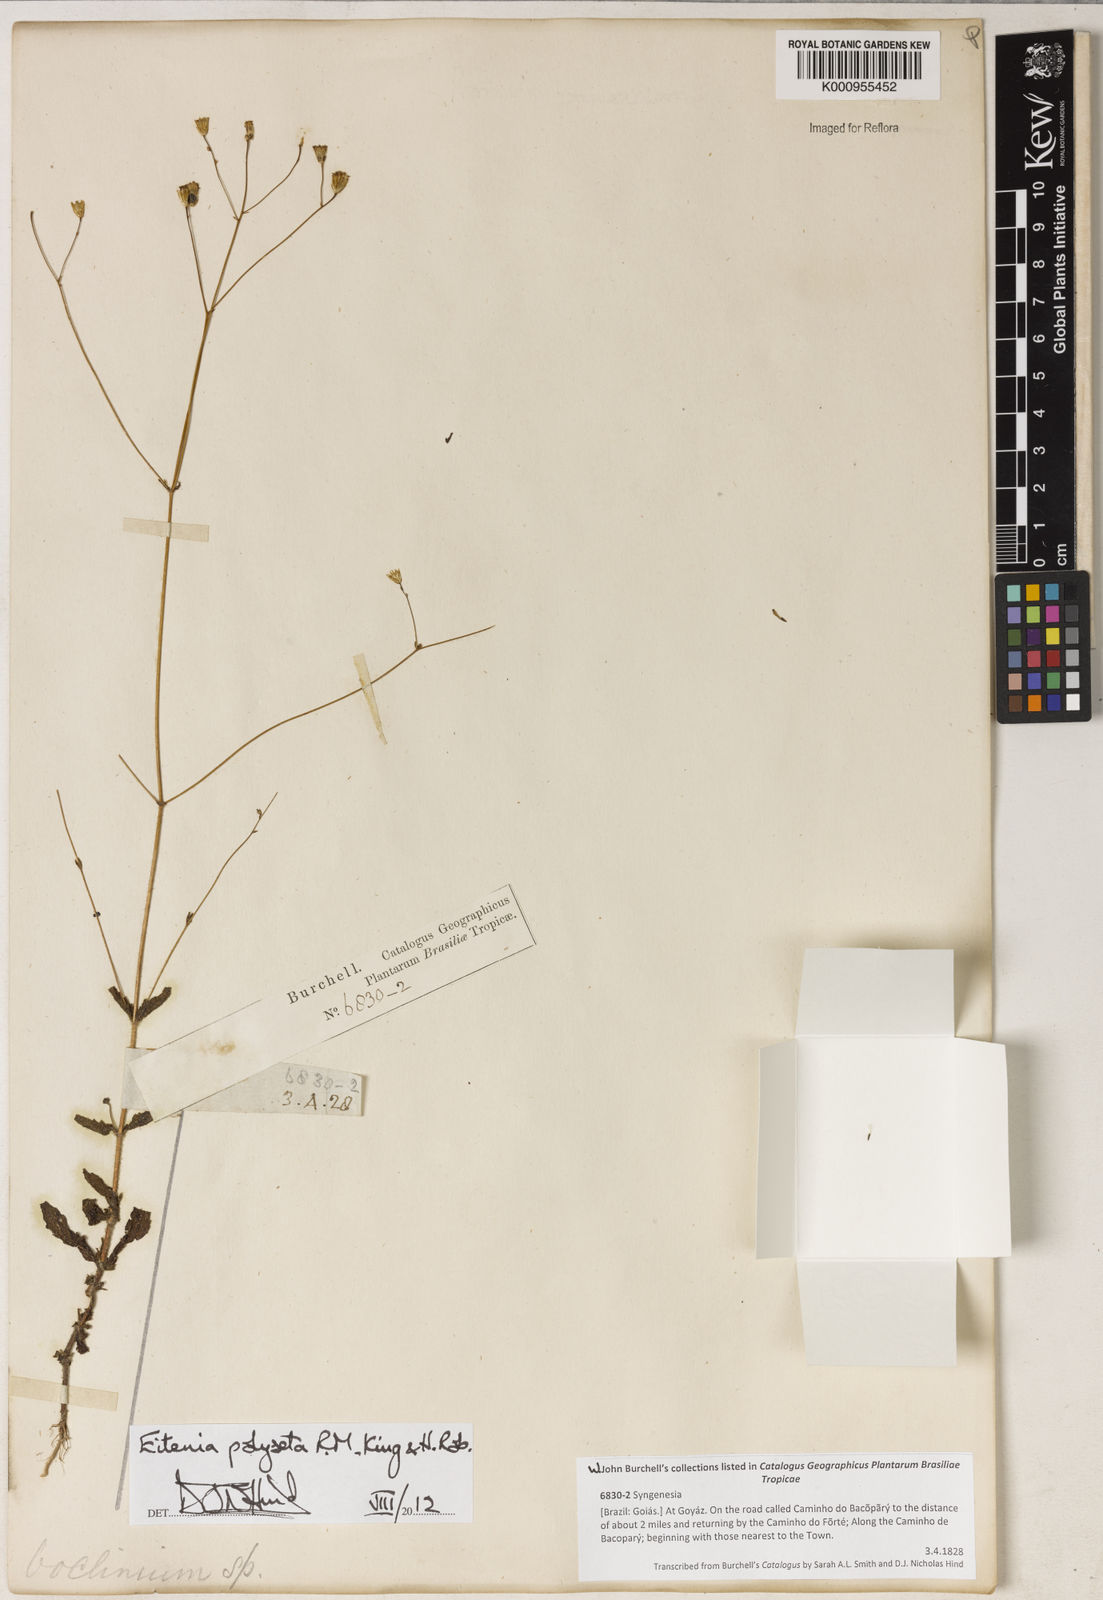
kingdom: Plantae
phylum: Tracheophyta
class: Magnoliopsida
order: Asterales
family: Asteraceae
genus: Eitenia
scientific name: Eitenia polyseta
